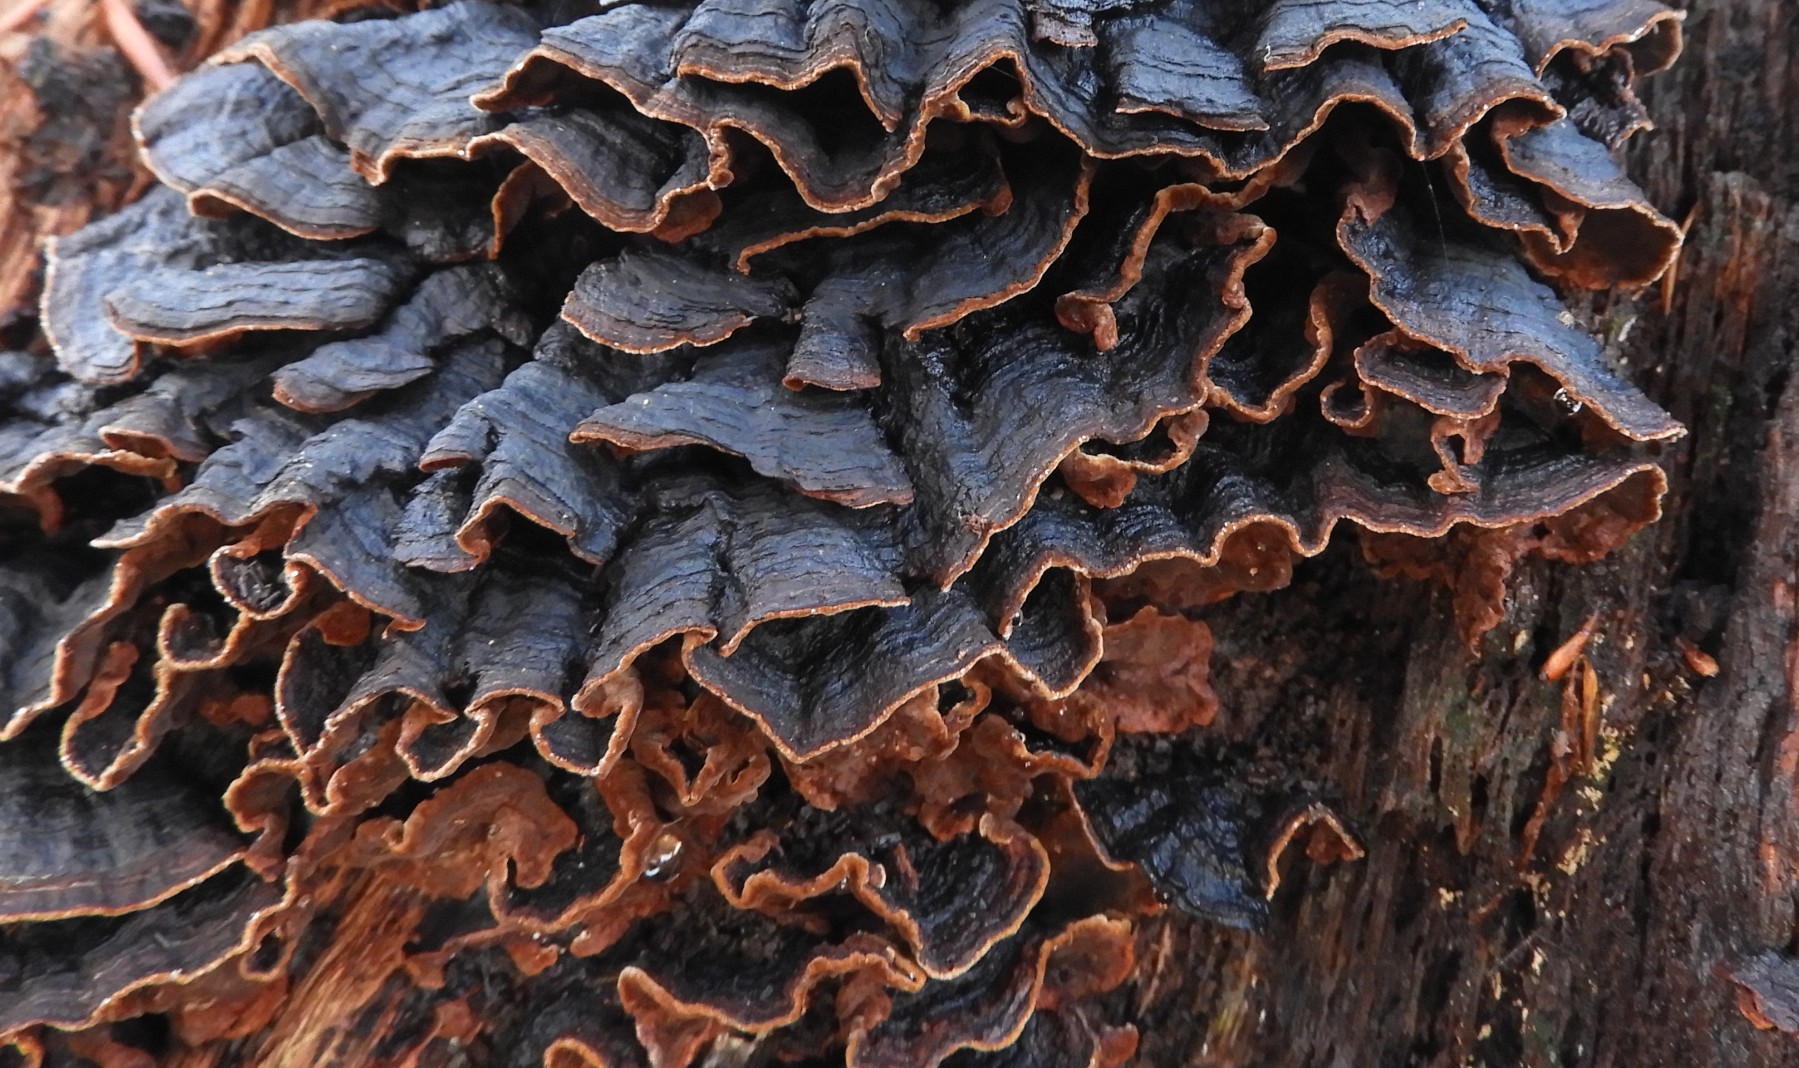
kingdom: Fungi
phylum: Basidiomycota
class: Agaricomycetes
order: Hymenochaetales
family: Hymenochaetaceae
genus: Hymenochaete
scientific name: Hymenochaete rubiginosa
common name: stiv ruslædersvamp
